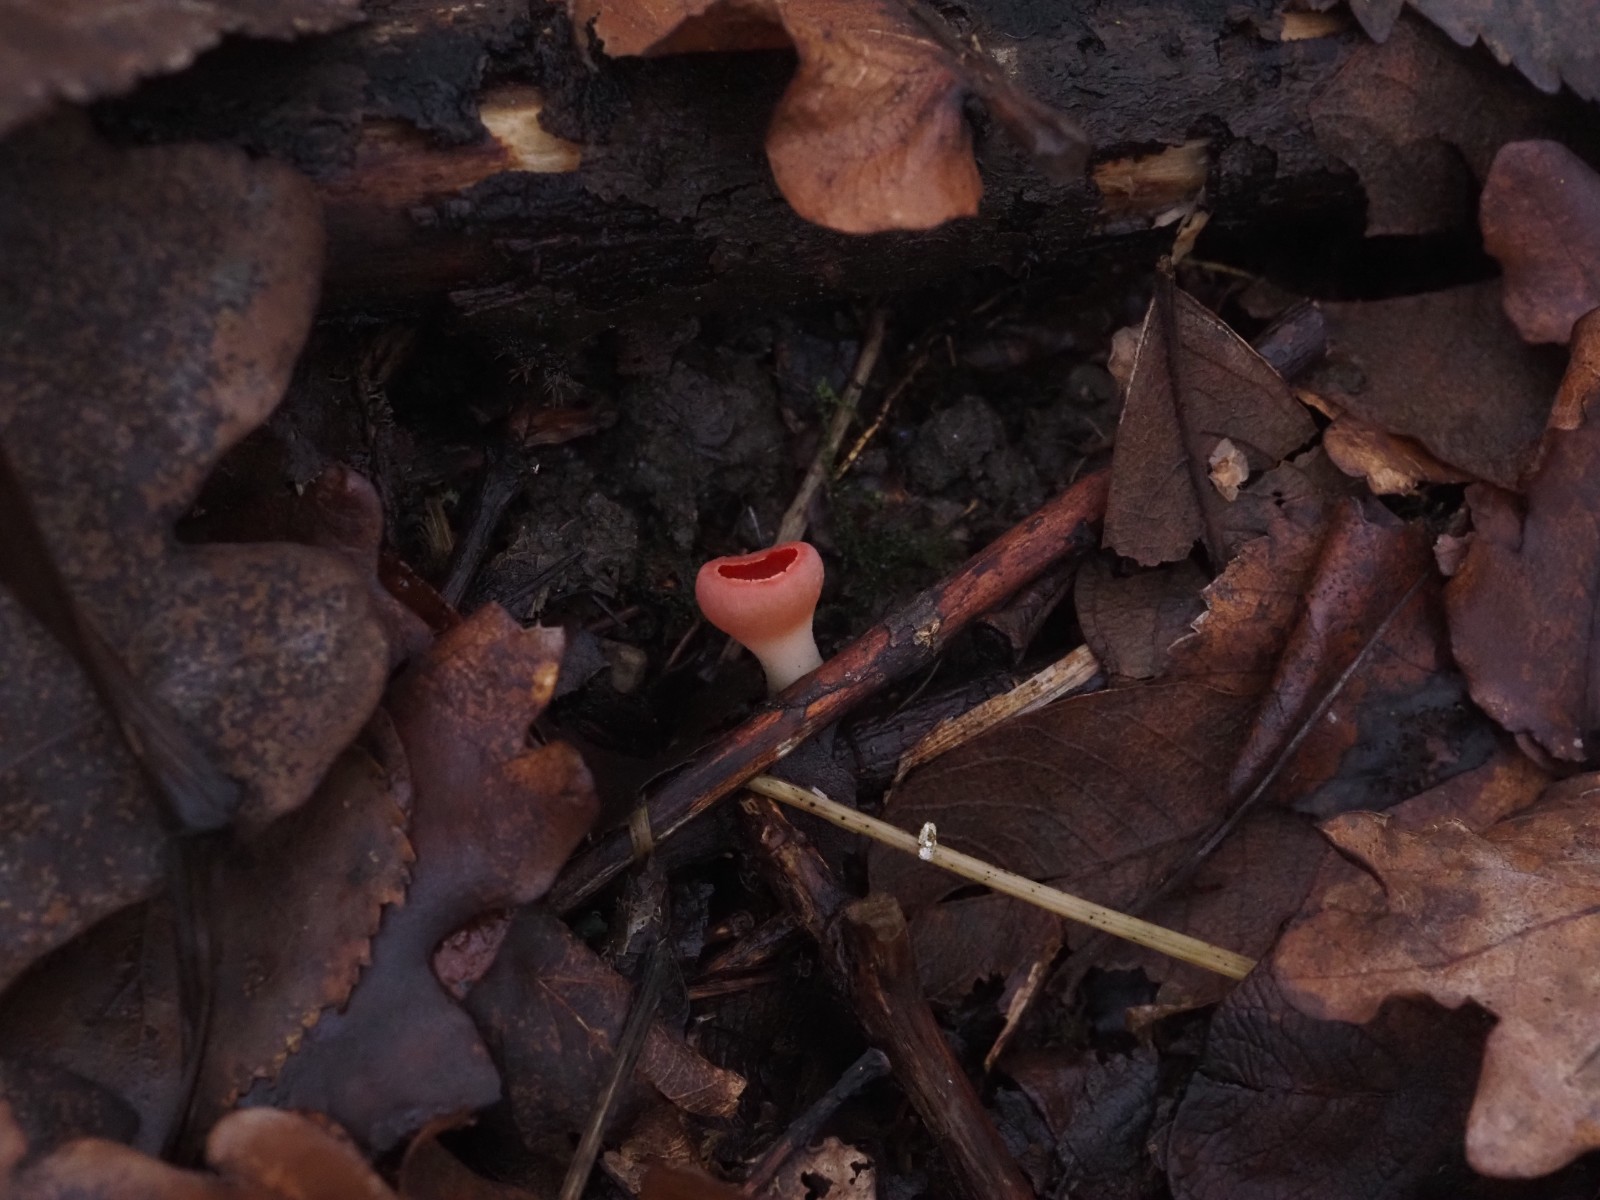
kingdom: Fungi
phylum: Ascomycota
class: Pezizomycetes
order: Pezizales
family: Sarcoscyphaceae
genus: Sarcoscypha
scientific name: Sarcoscypha austriaca
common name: krølhåret pragtbæger
